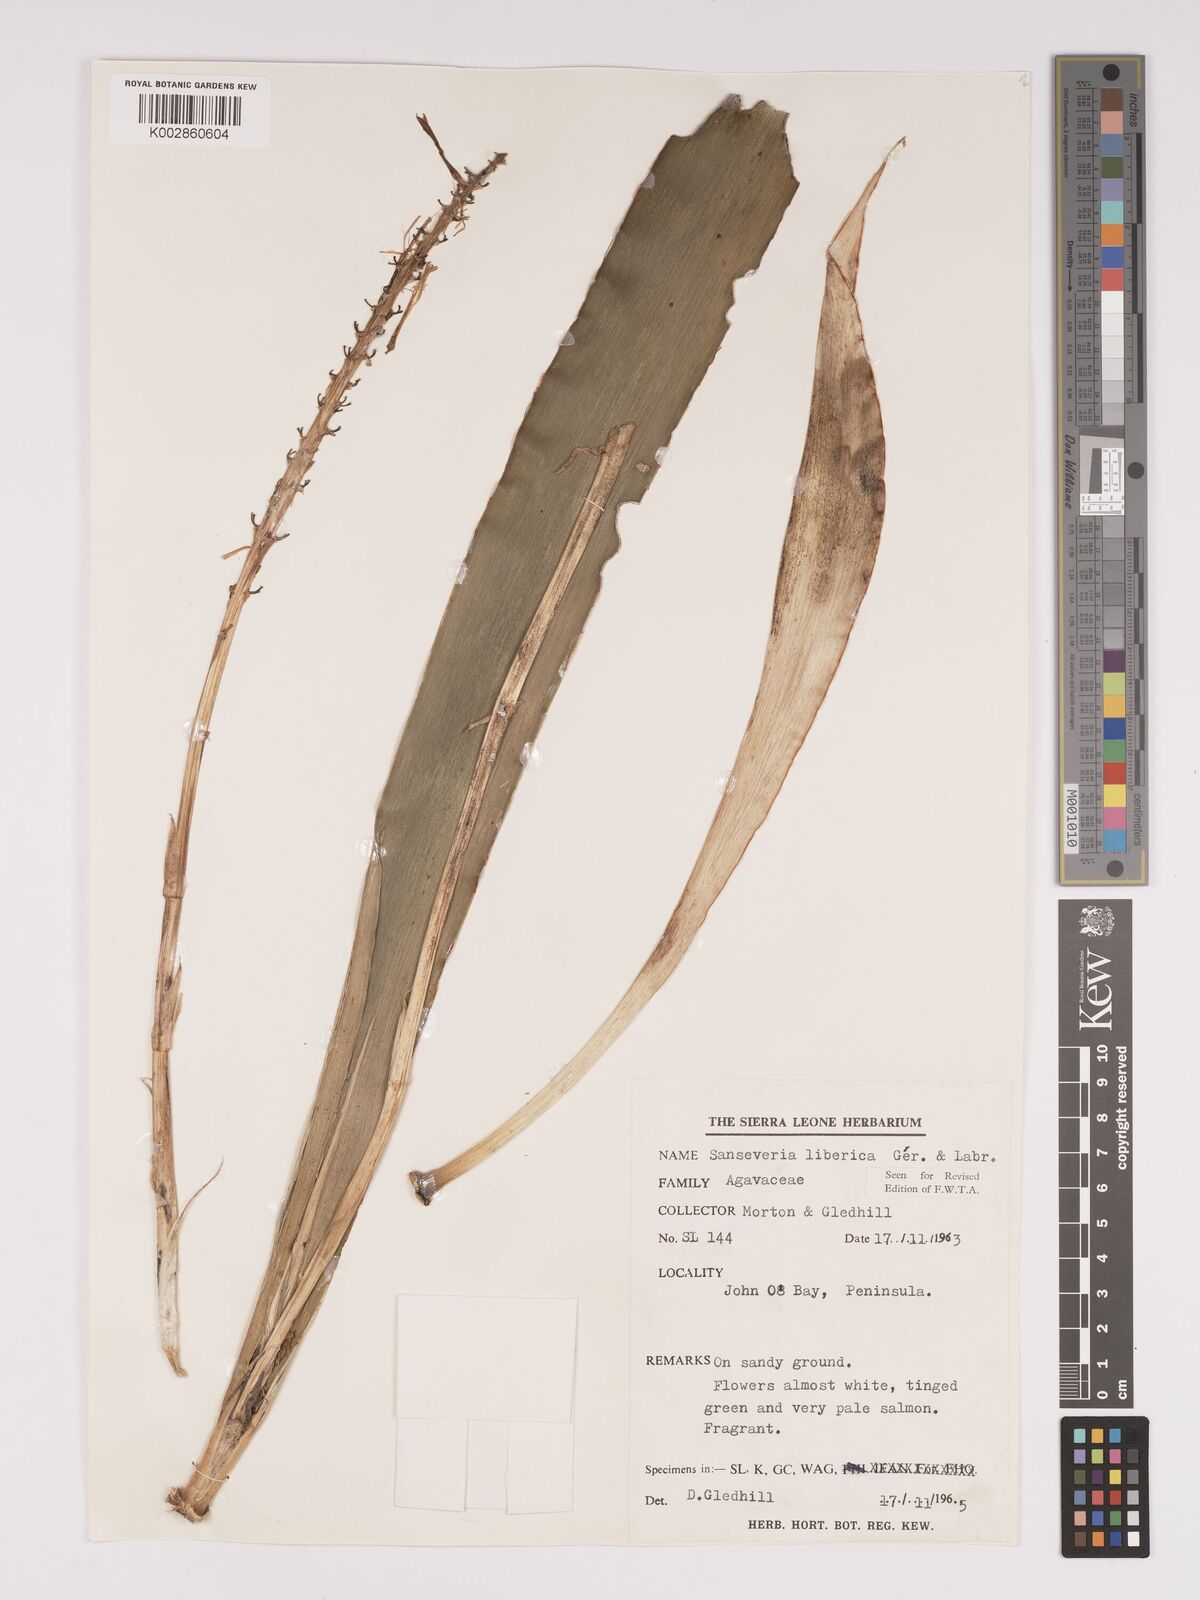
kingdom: Plantae
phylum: Tracheophyta
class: Liliopsida
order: Asparagales
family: Asparagaceae
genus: Dracaena
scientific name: Dracaena liberica
